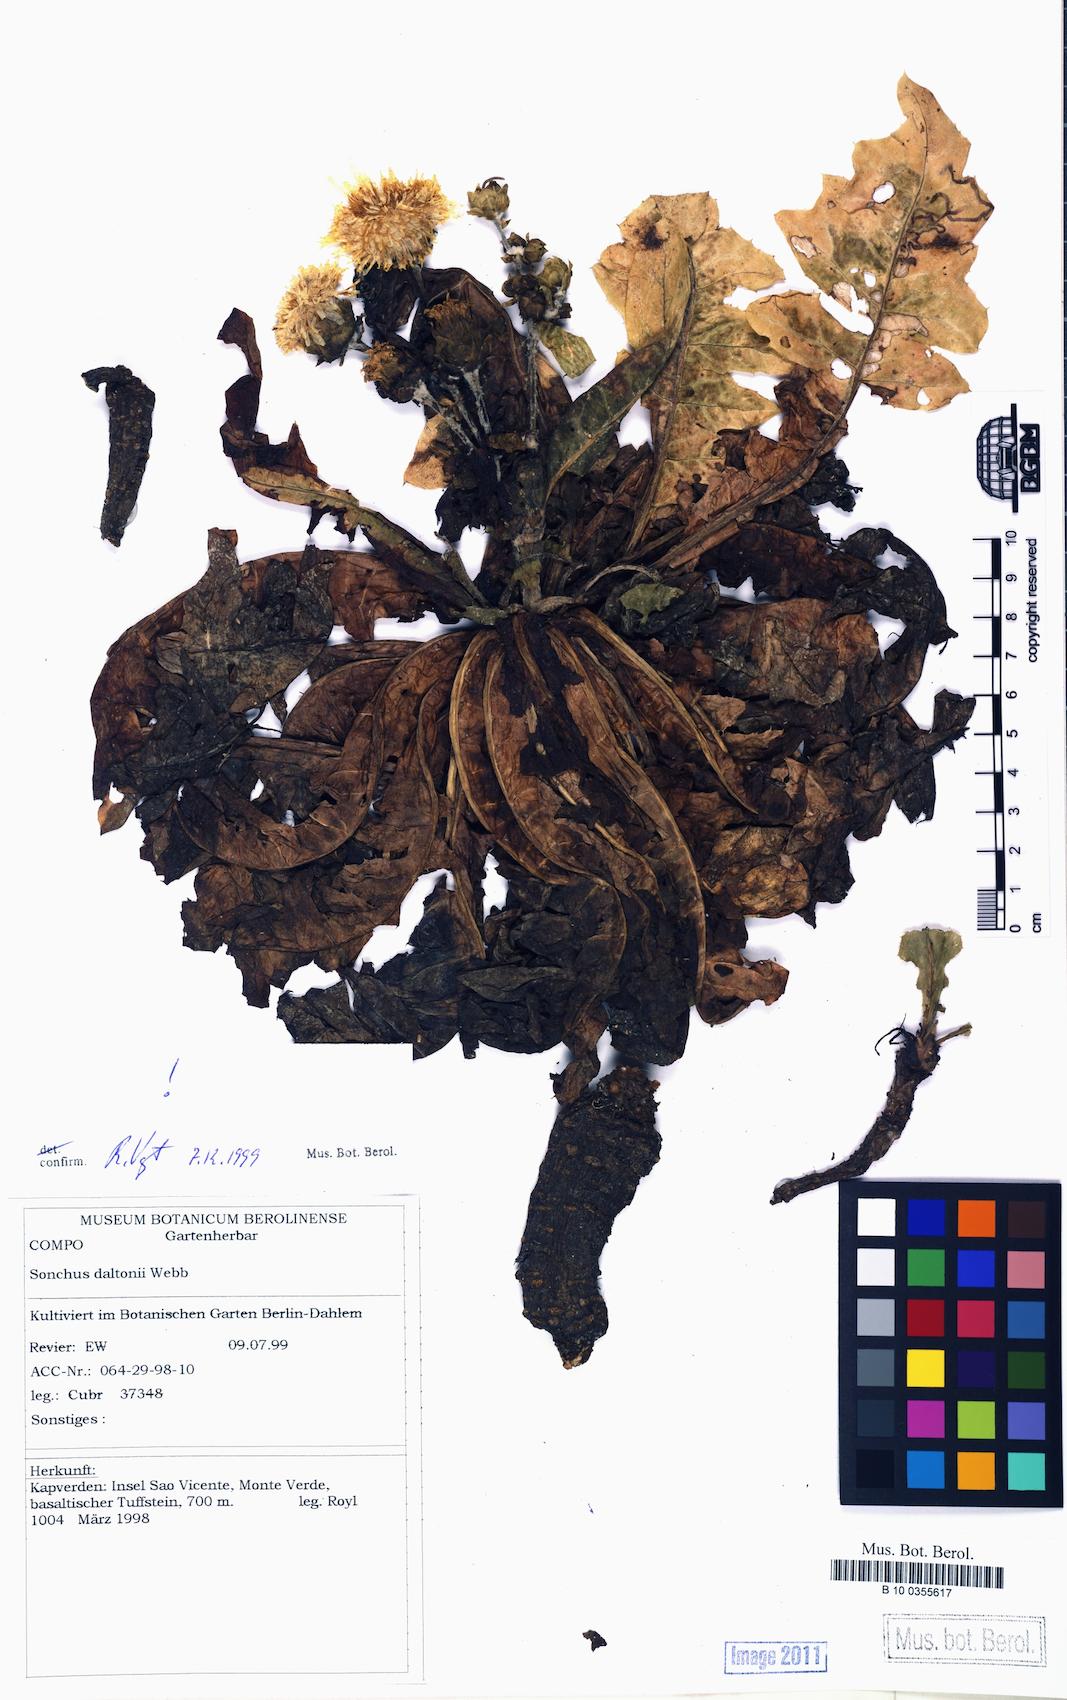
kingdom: Plantae
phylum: Tracheophyta
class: Magnoliopsida
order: Asterales
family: Asteraceae
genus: Sonchus
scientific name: Sonchus daltonii
